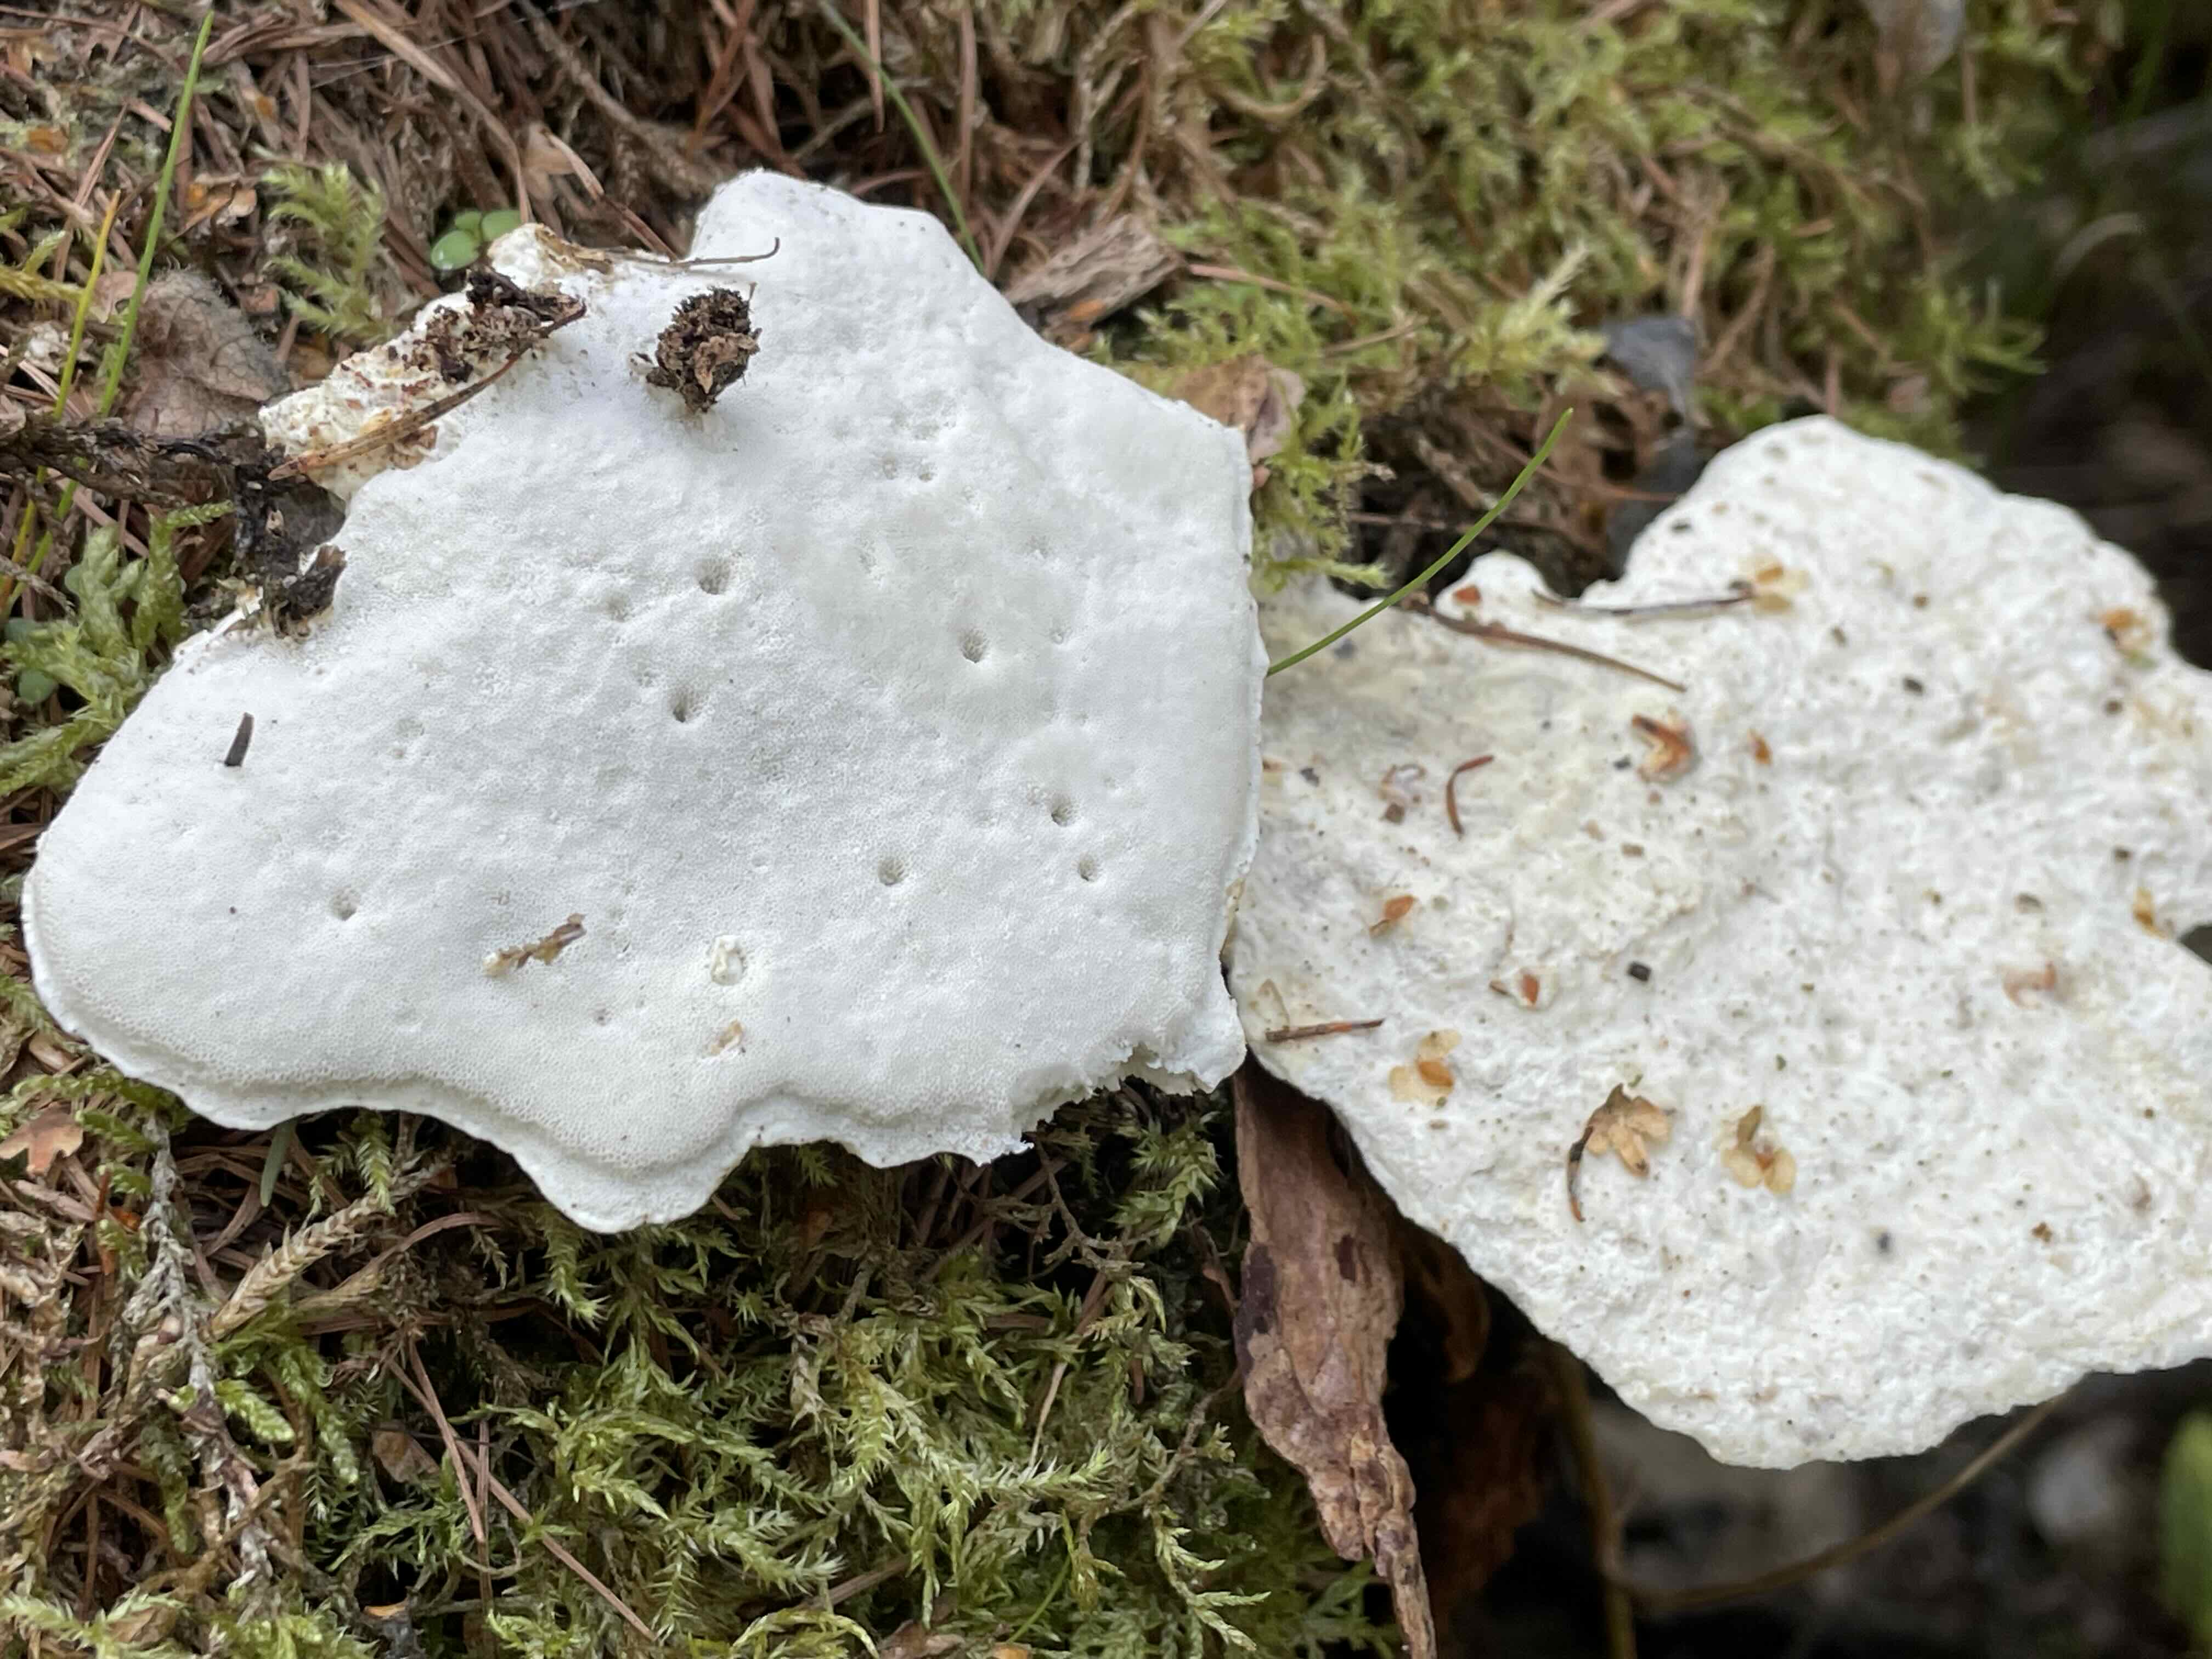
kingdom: Fungi
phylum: Basidiomycota
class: Agaricomycetes
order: Polyporales
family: Fomitopsidaceae
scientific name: Fomitopsidaceae
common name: hovporesvampfamilien
